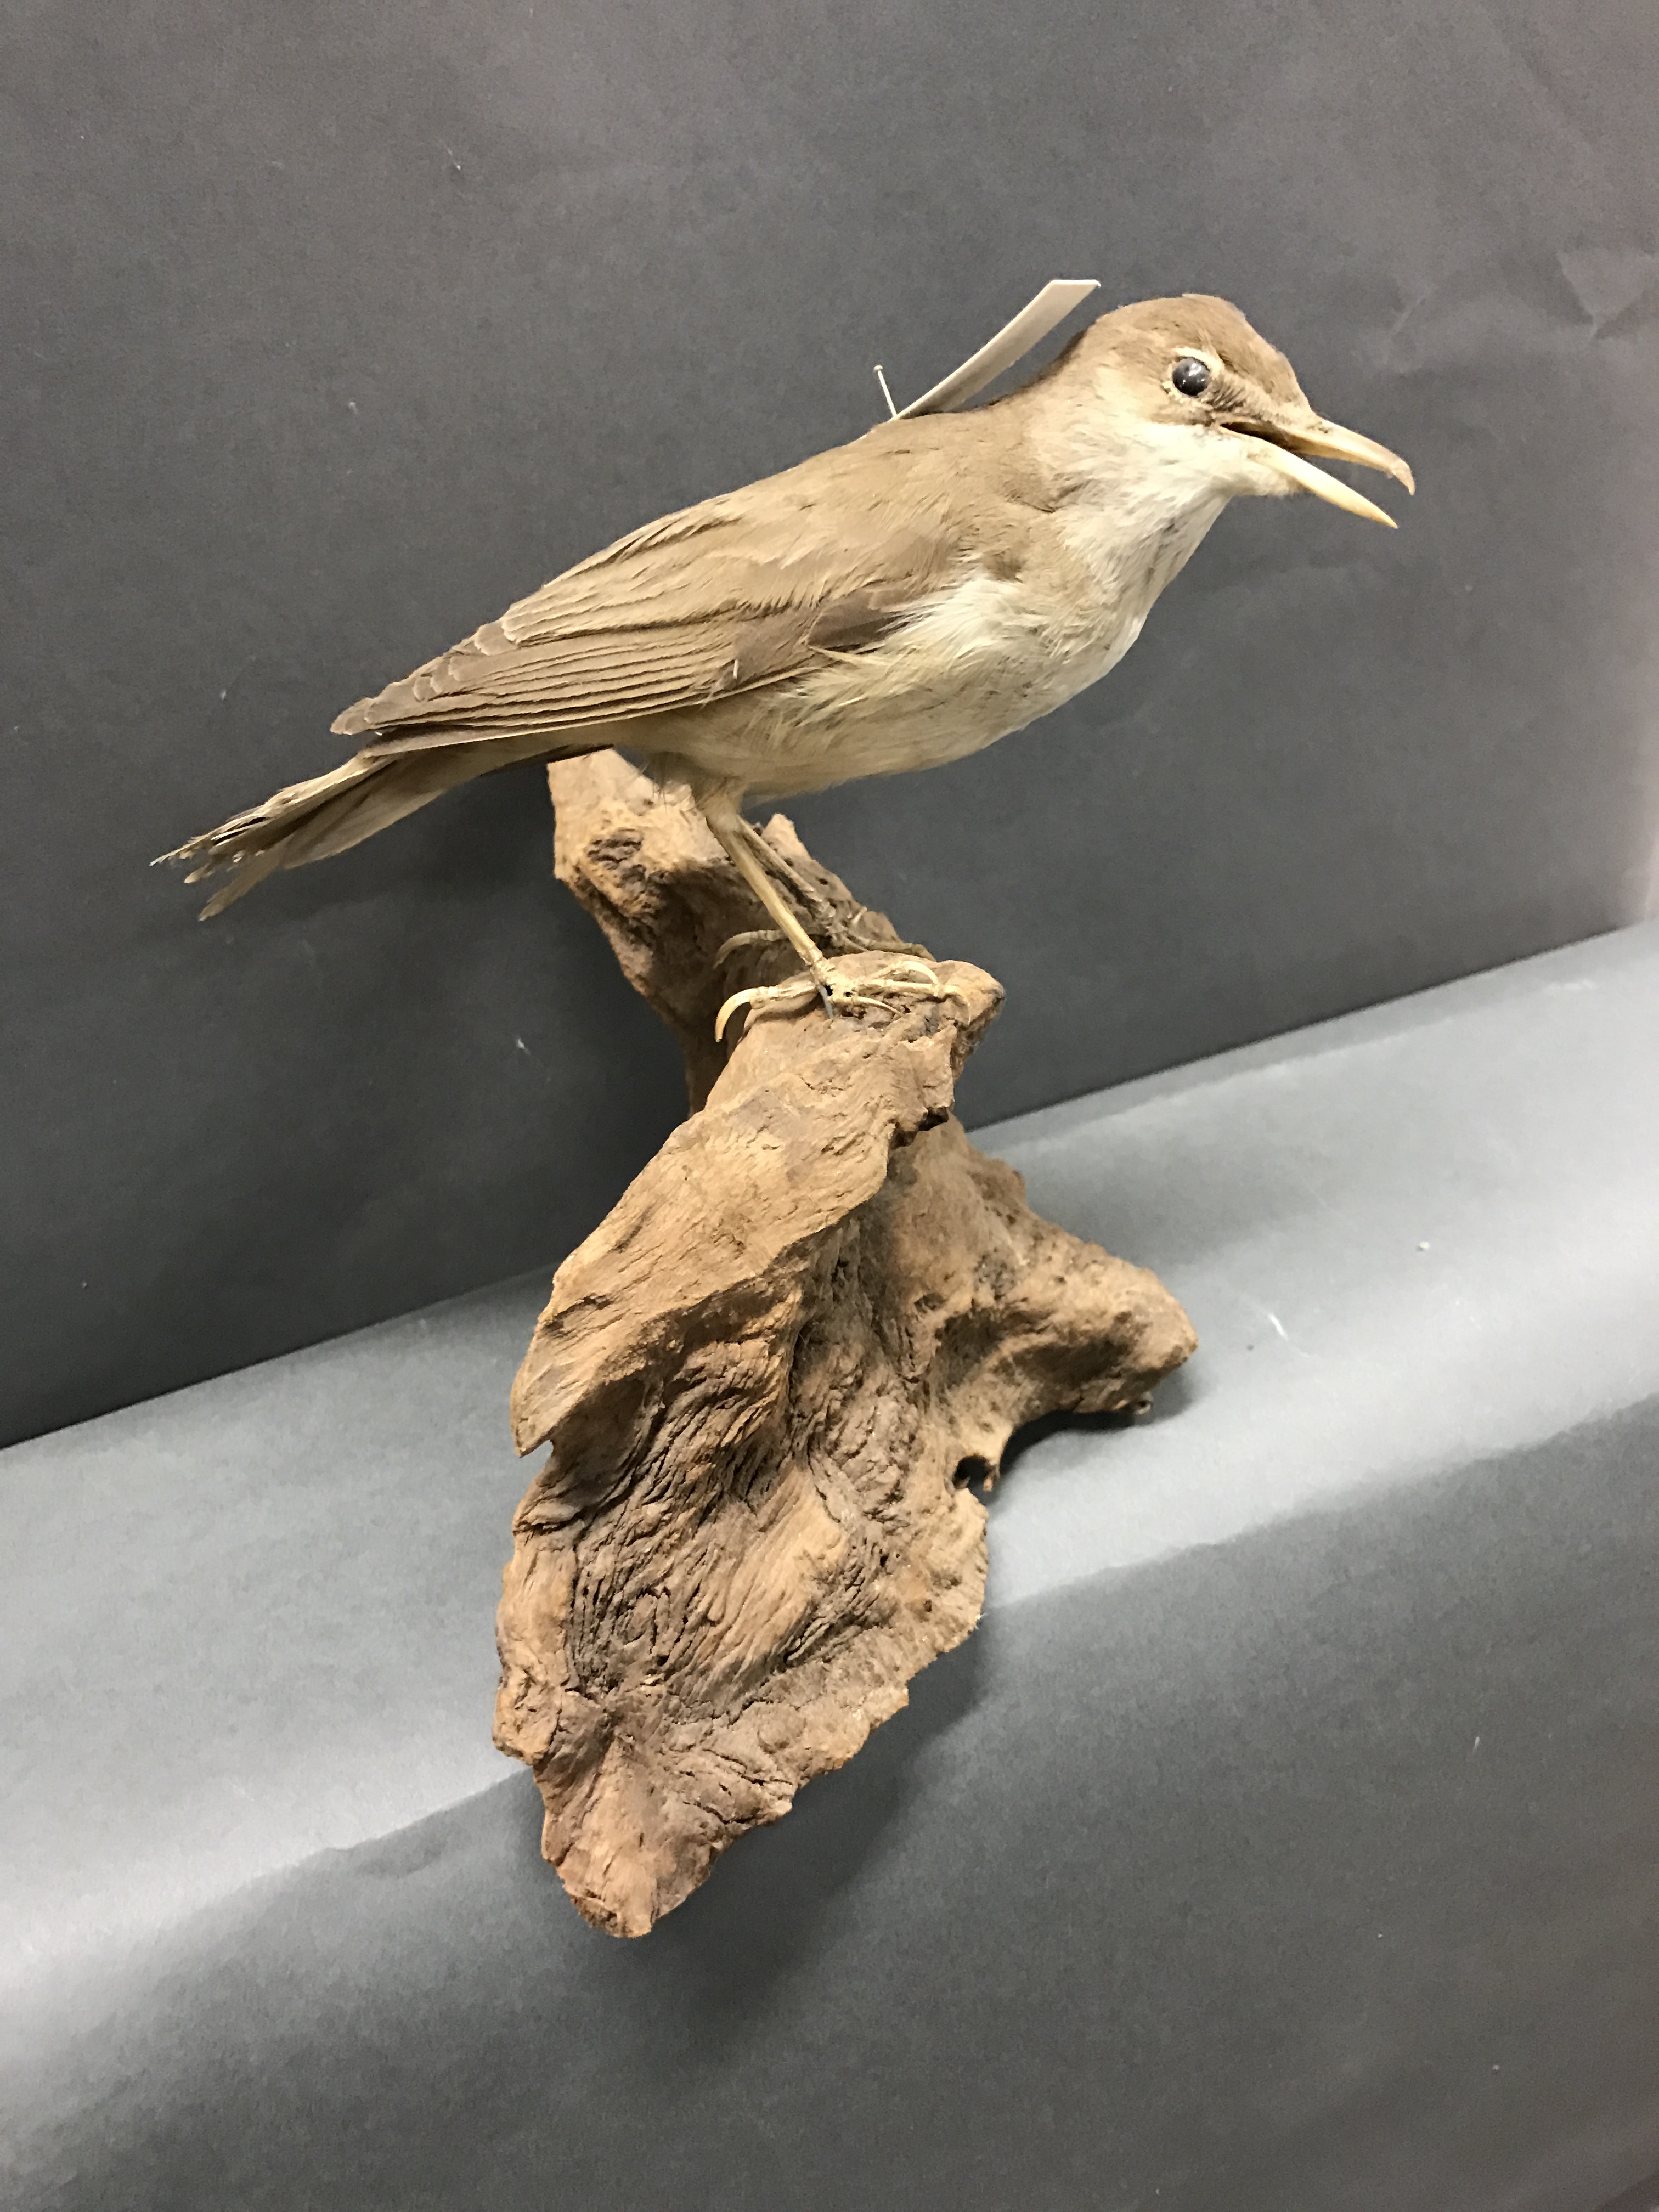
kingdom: Animalia
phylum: Chordata
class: Aves
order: Passeriformes
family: Acrocephalidae
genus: Acrocephalus
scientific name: Acrocephalus arundinaceus
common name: Great reed warbler
